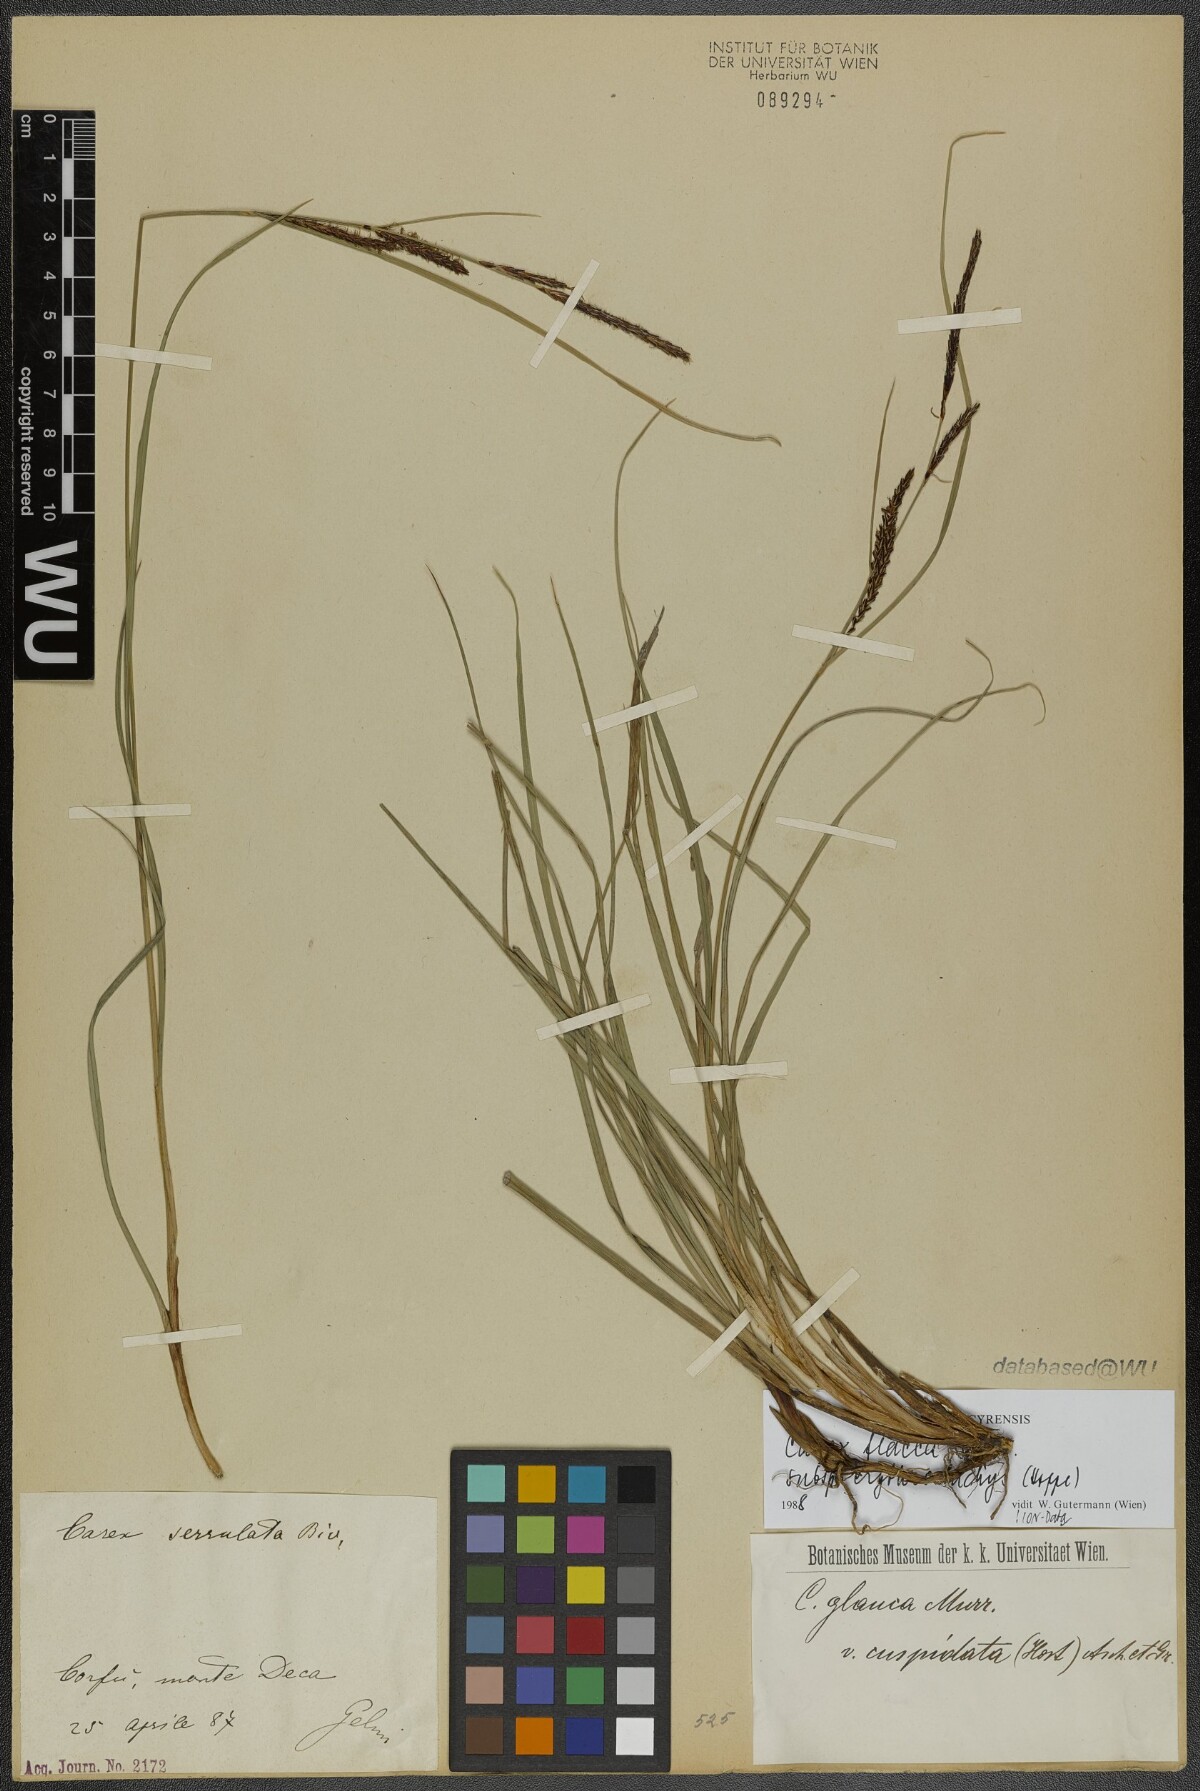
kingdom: Plantae
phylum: Tracheophyta
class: Liliopsida
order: Poales
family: Cyperaceae
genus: Carex
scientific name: Carex flacca
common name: Glaucous sedge
